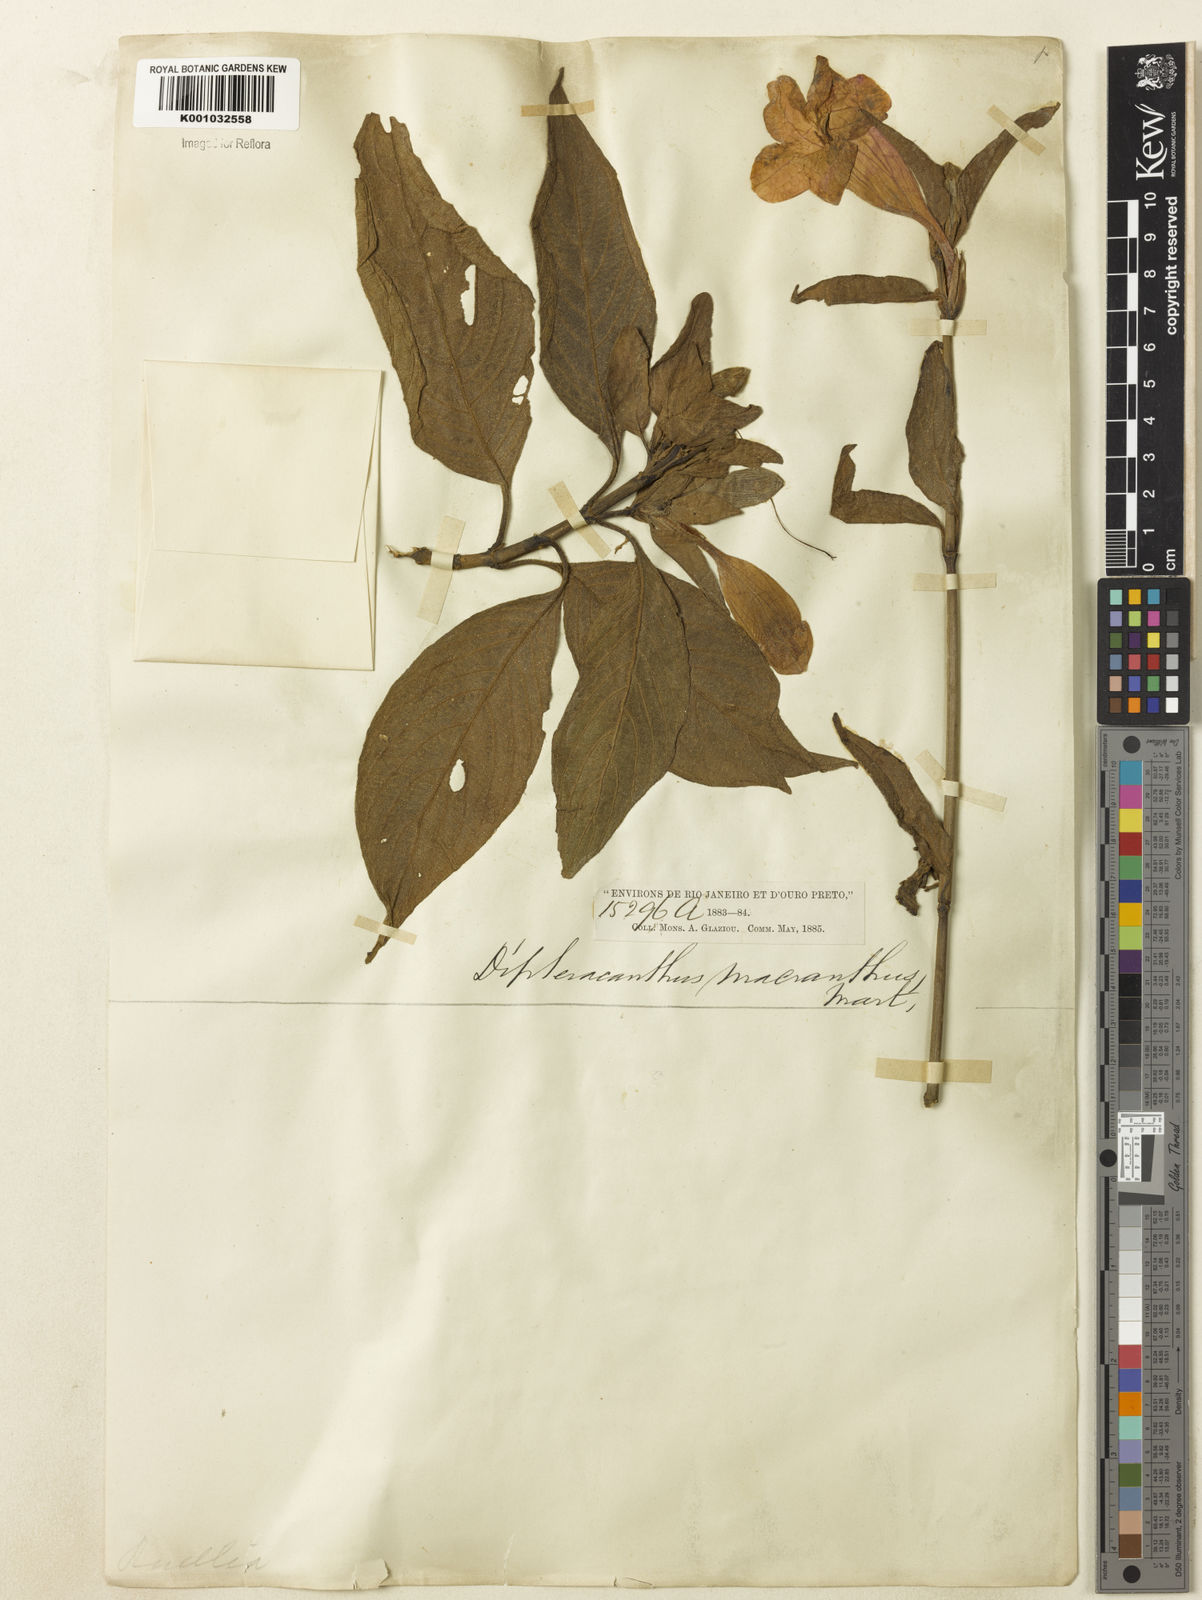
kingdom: Plantae
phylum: Tracheophyta
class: Magnoliopsida
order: Lamiales
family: Acanthaceae
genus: Ruellia
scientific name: Ruellia
